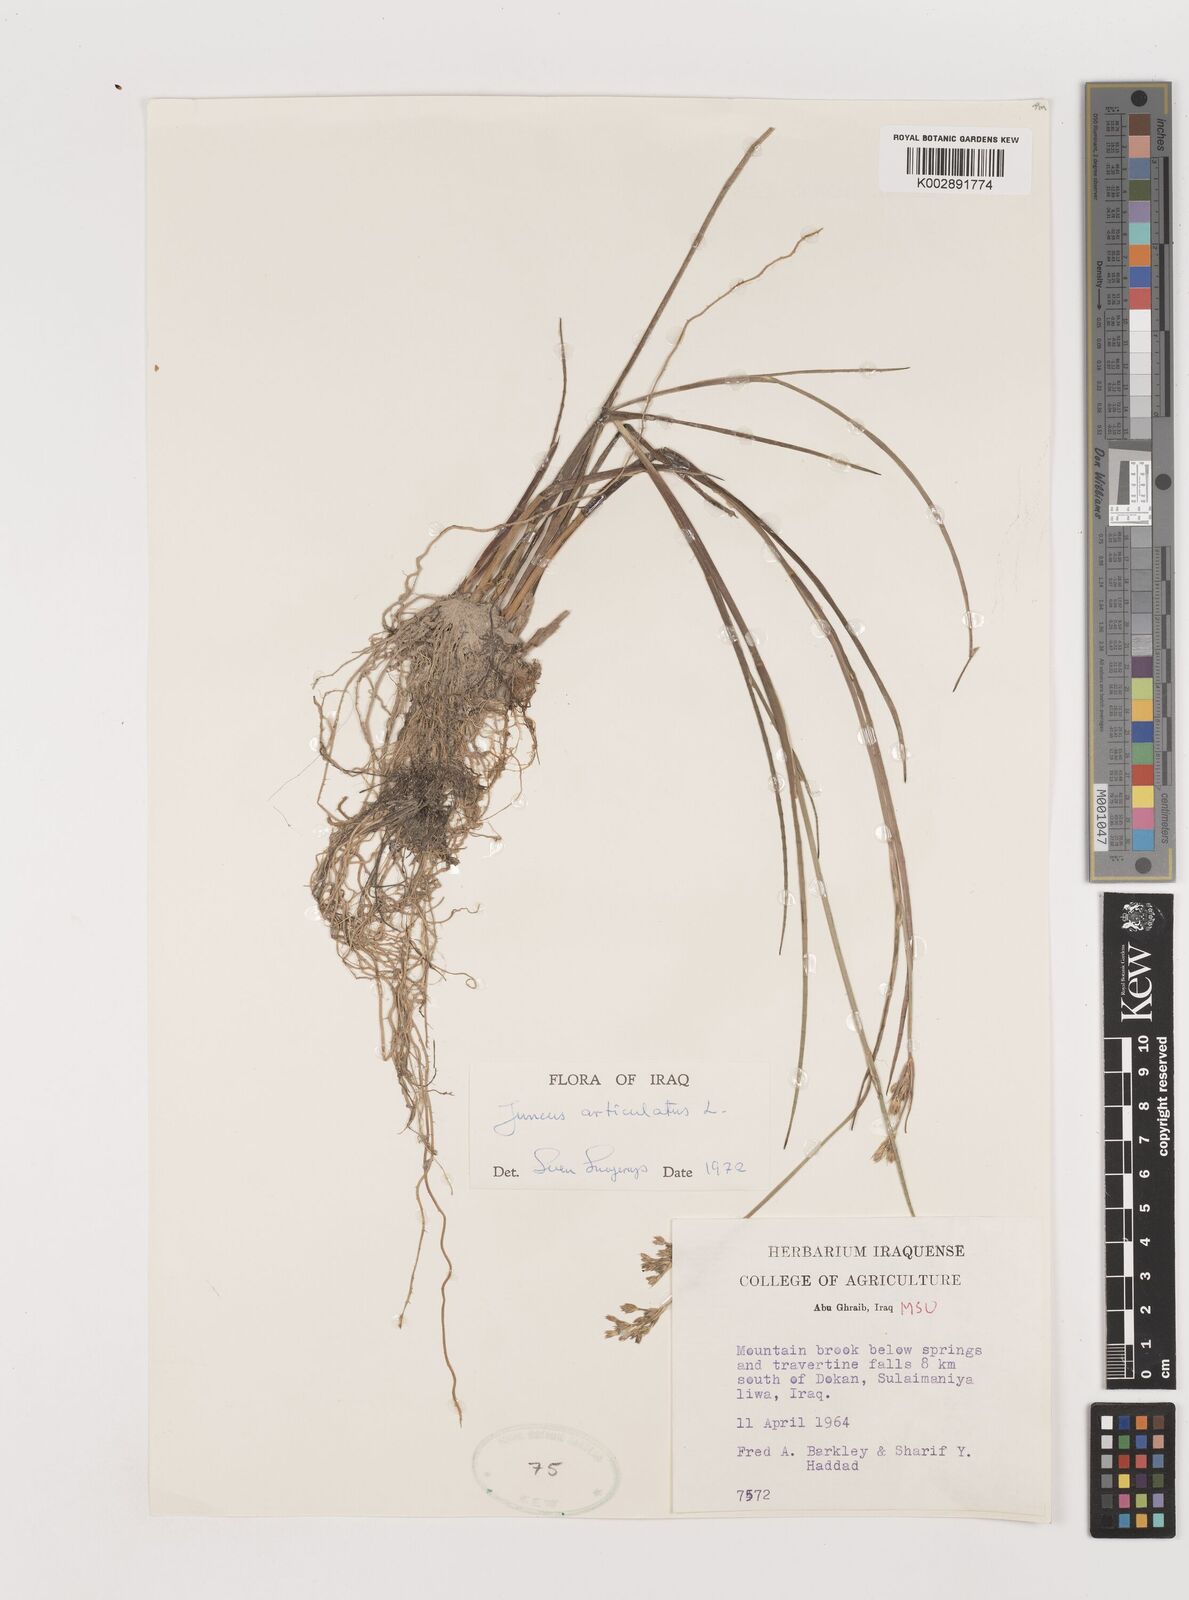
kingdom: Plantae
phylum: Tracheophyta
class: Liliopsida
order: Poales
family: Juncaceae
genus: Juncus
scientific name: Juncus articulatus
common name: Jointed rush
